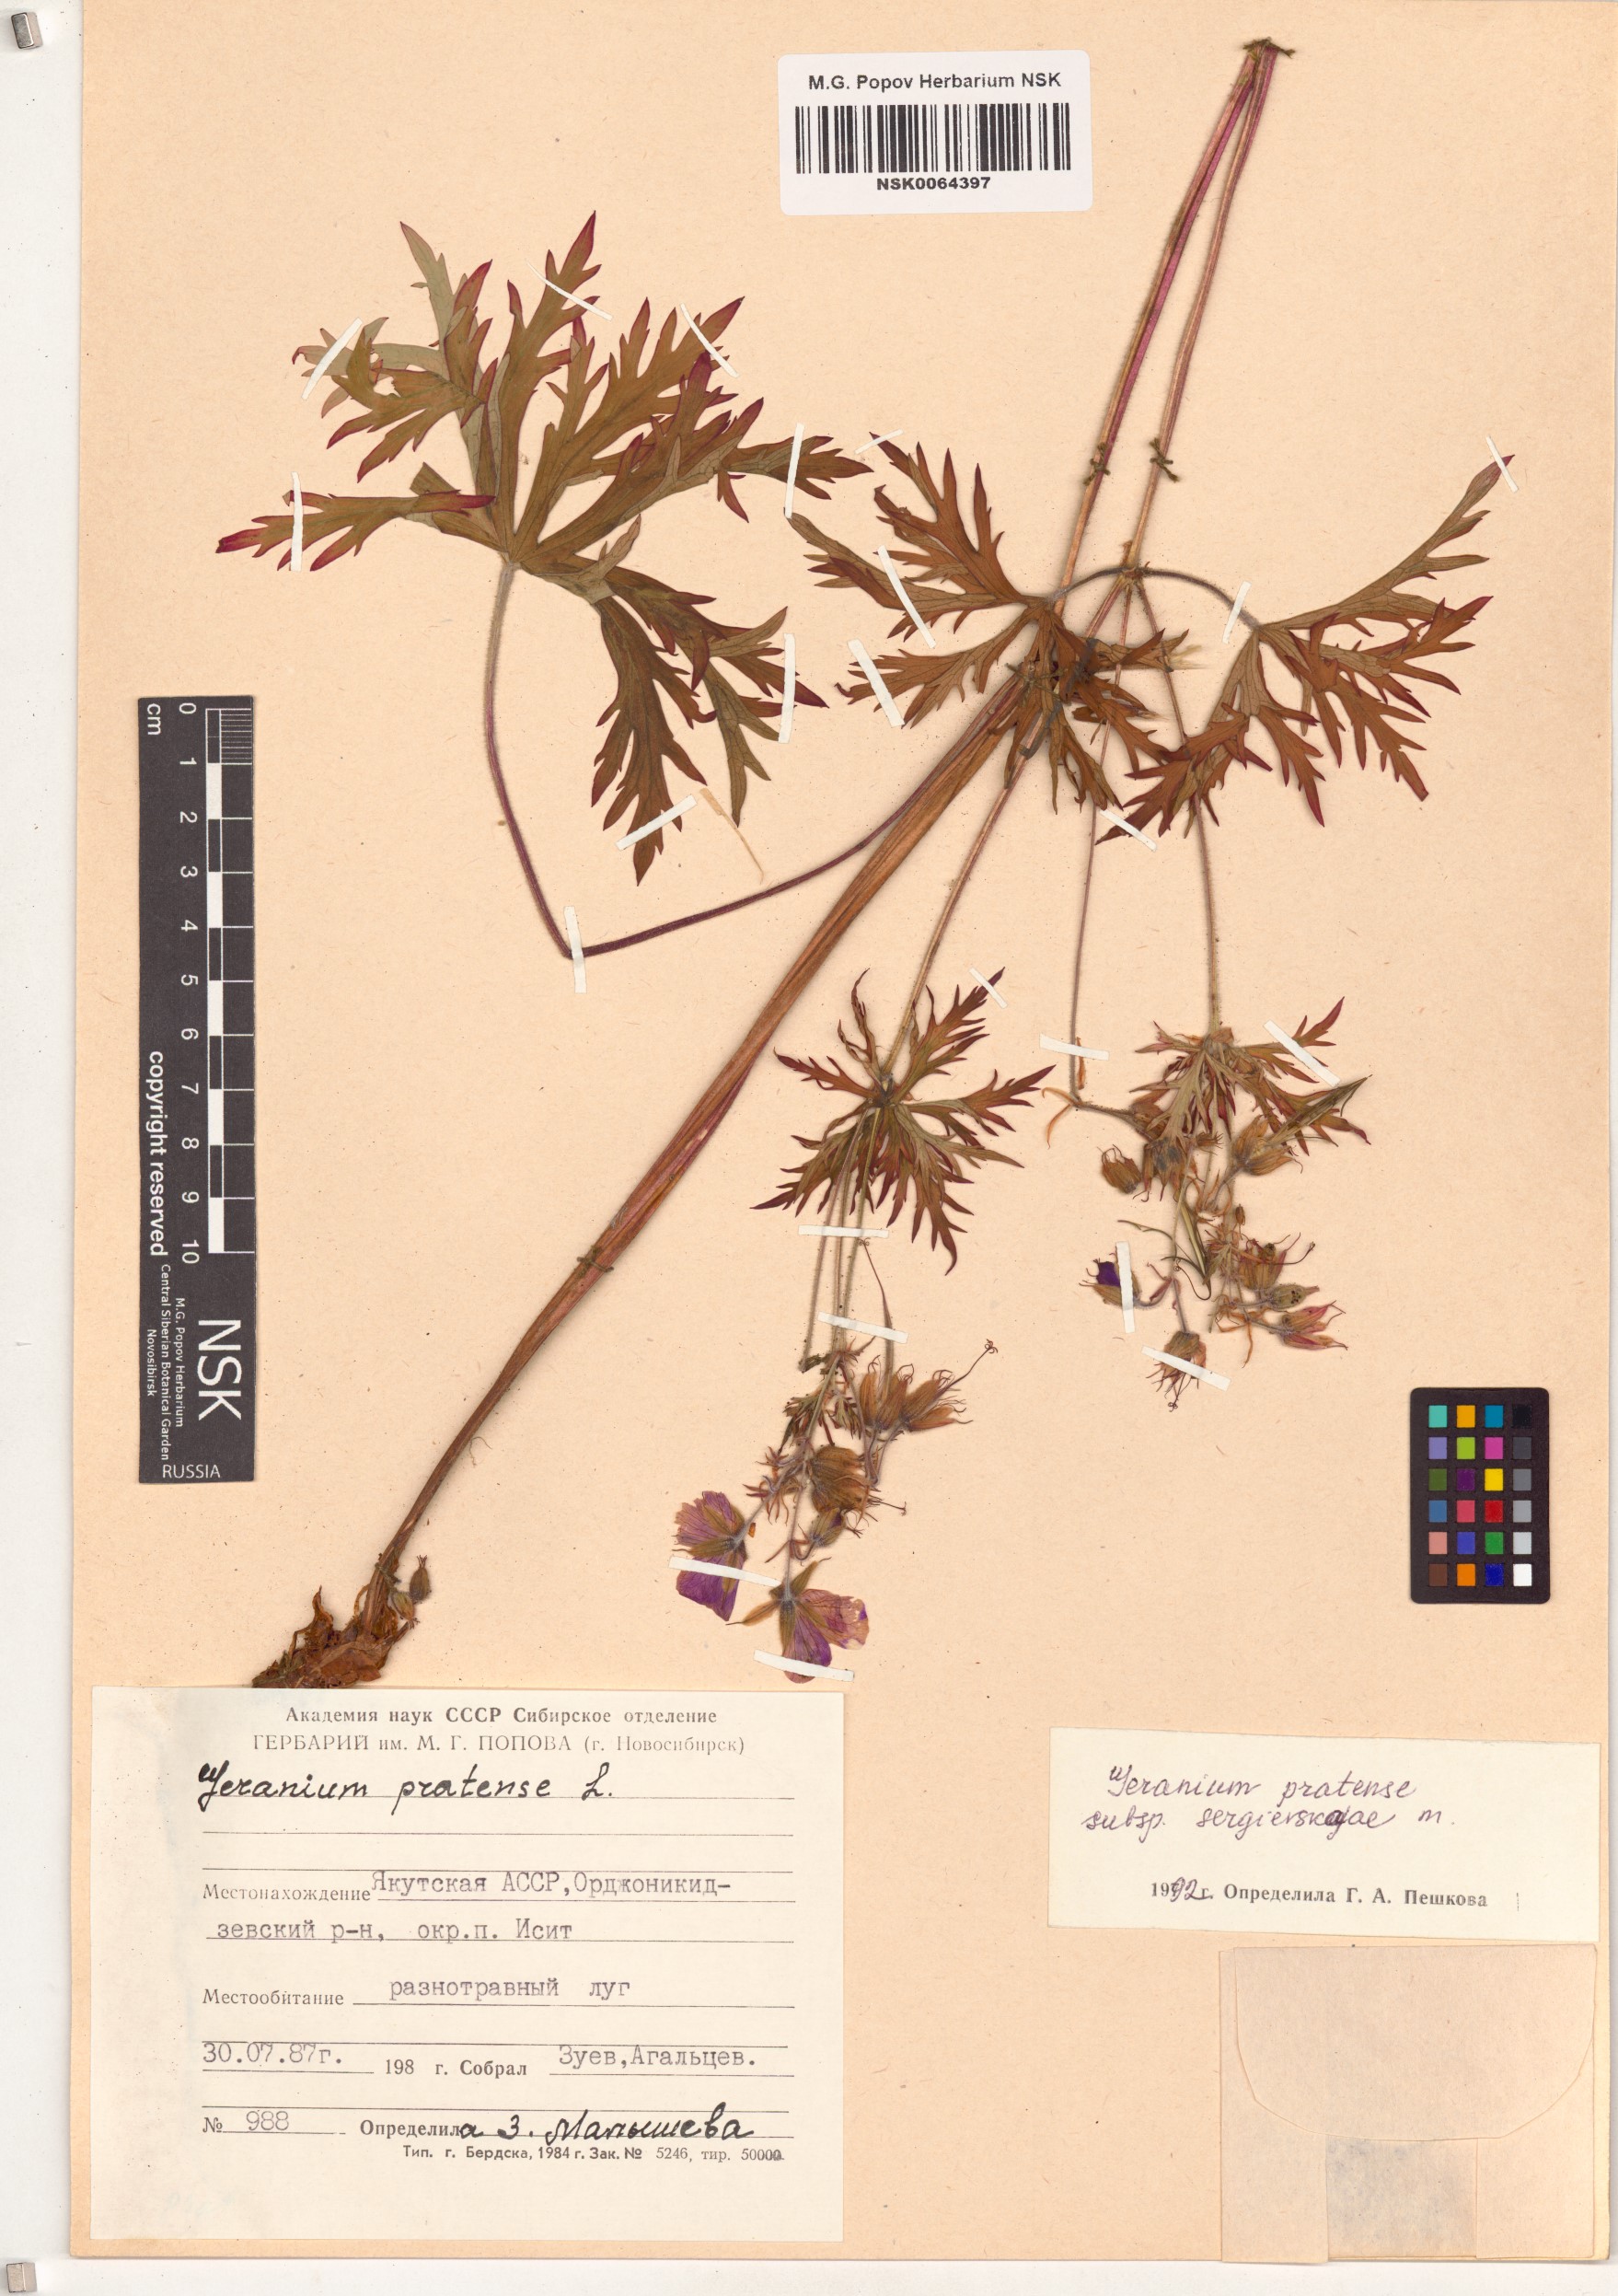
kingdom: Plantae
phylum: Tracheophyta
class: Magnoliopsida
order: Geraniales
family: Geraniaceae
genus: Geranium
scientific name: Geranium pratense
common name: Meadow crane's-bill
